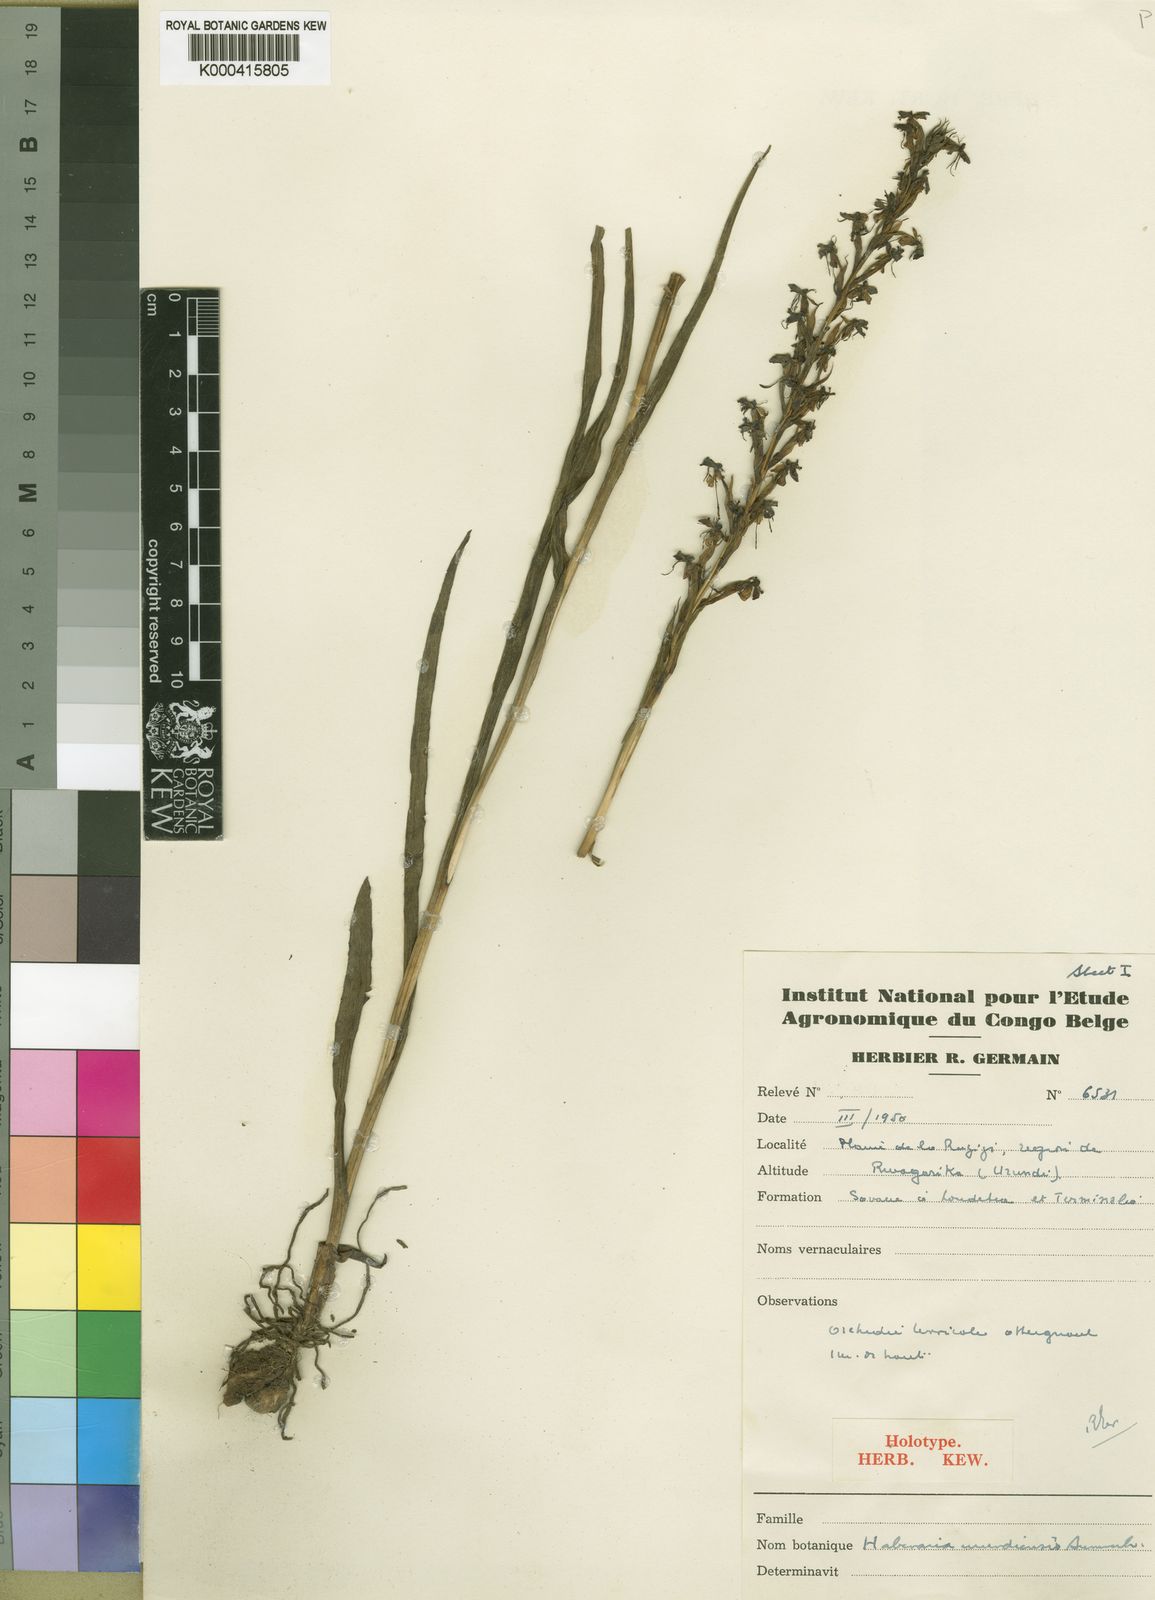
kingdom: Plantae
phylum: Tracheophyta
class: Liliopsida
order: Asparagales
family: Orchidaceae
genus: Habenaria
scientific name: Habenaria huillensis
